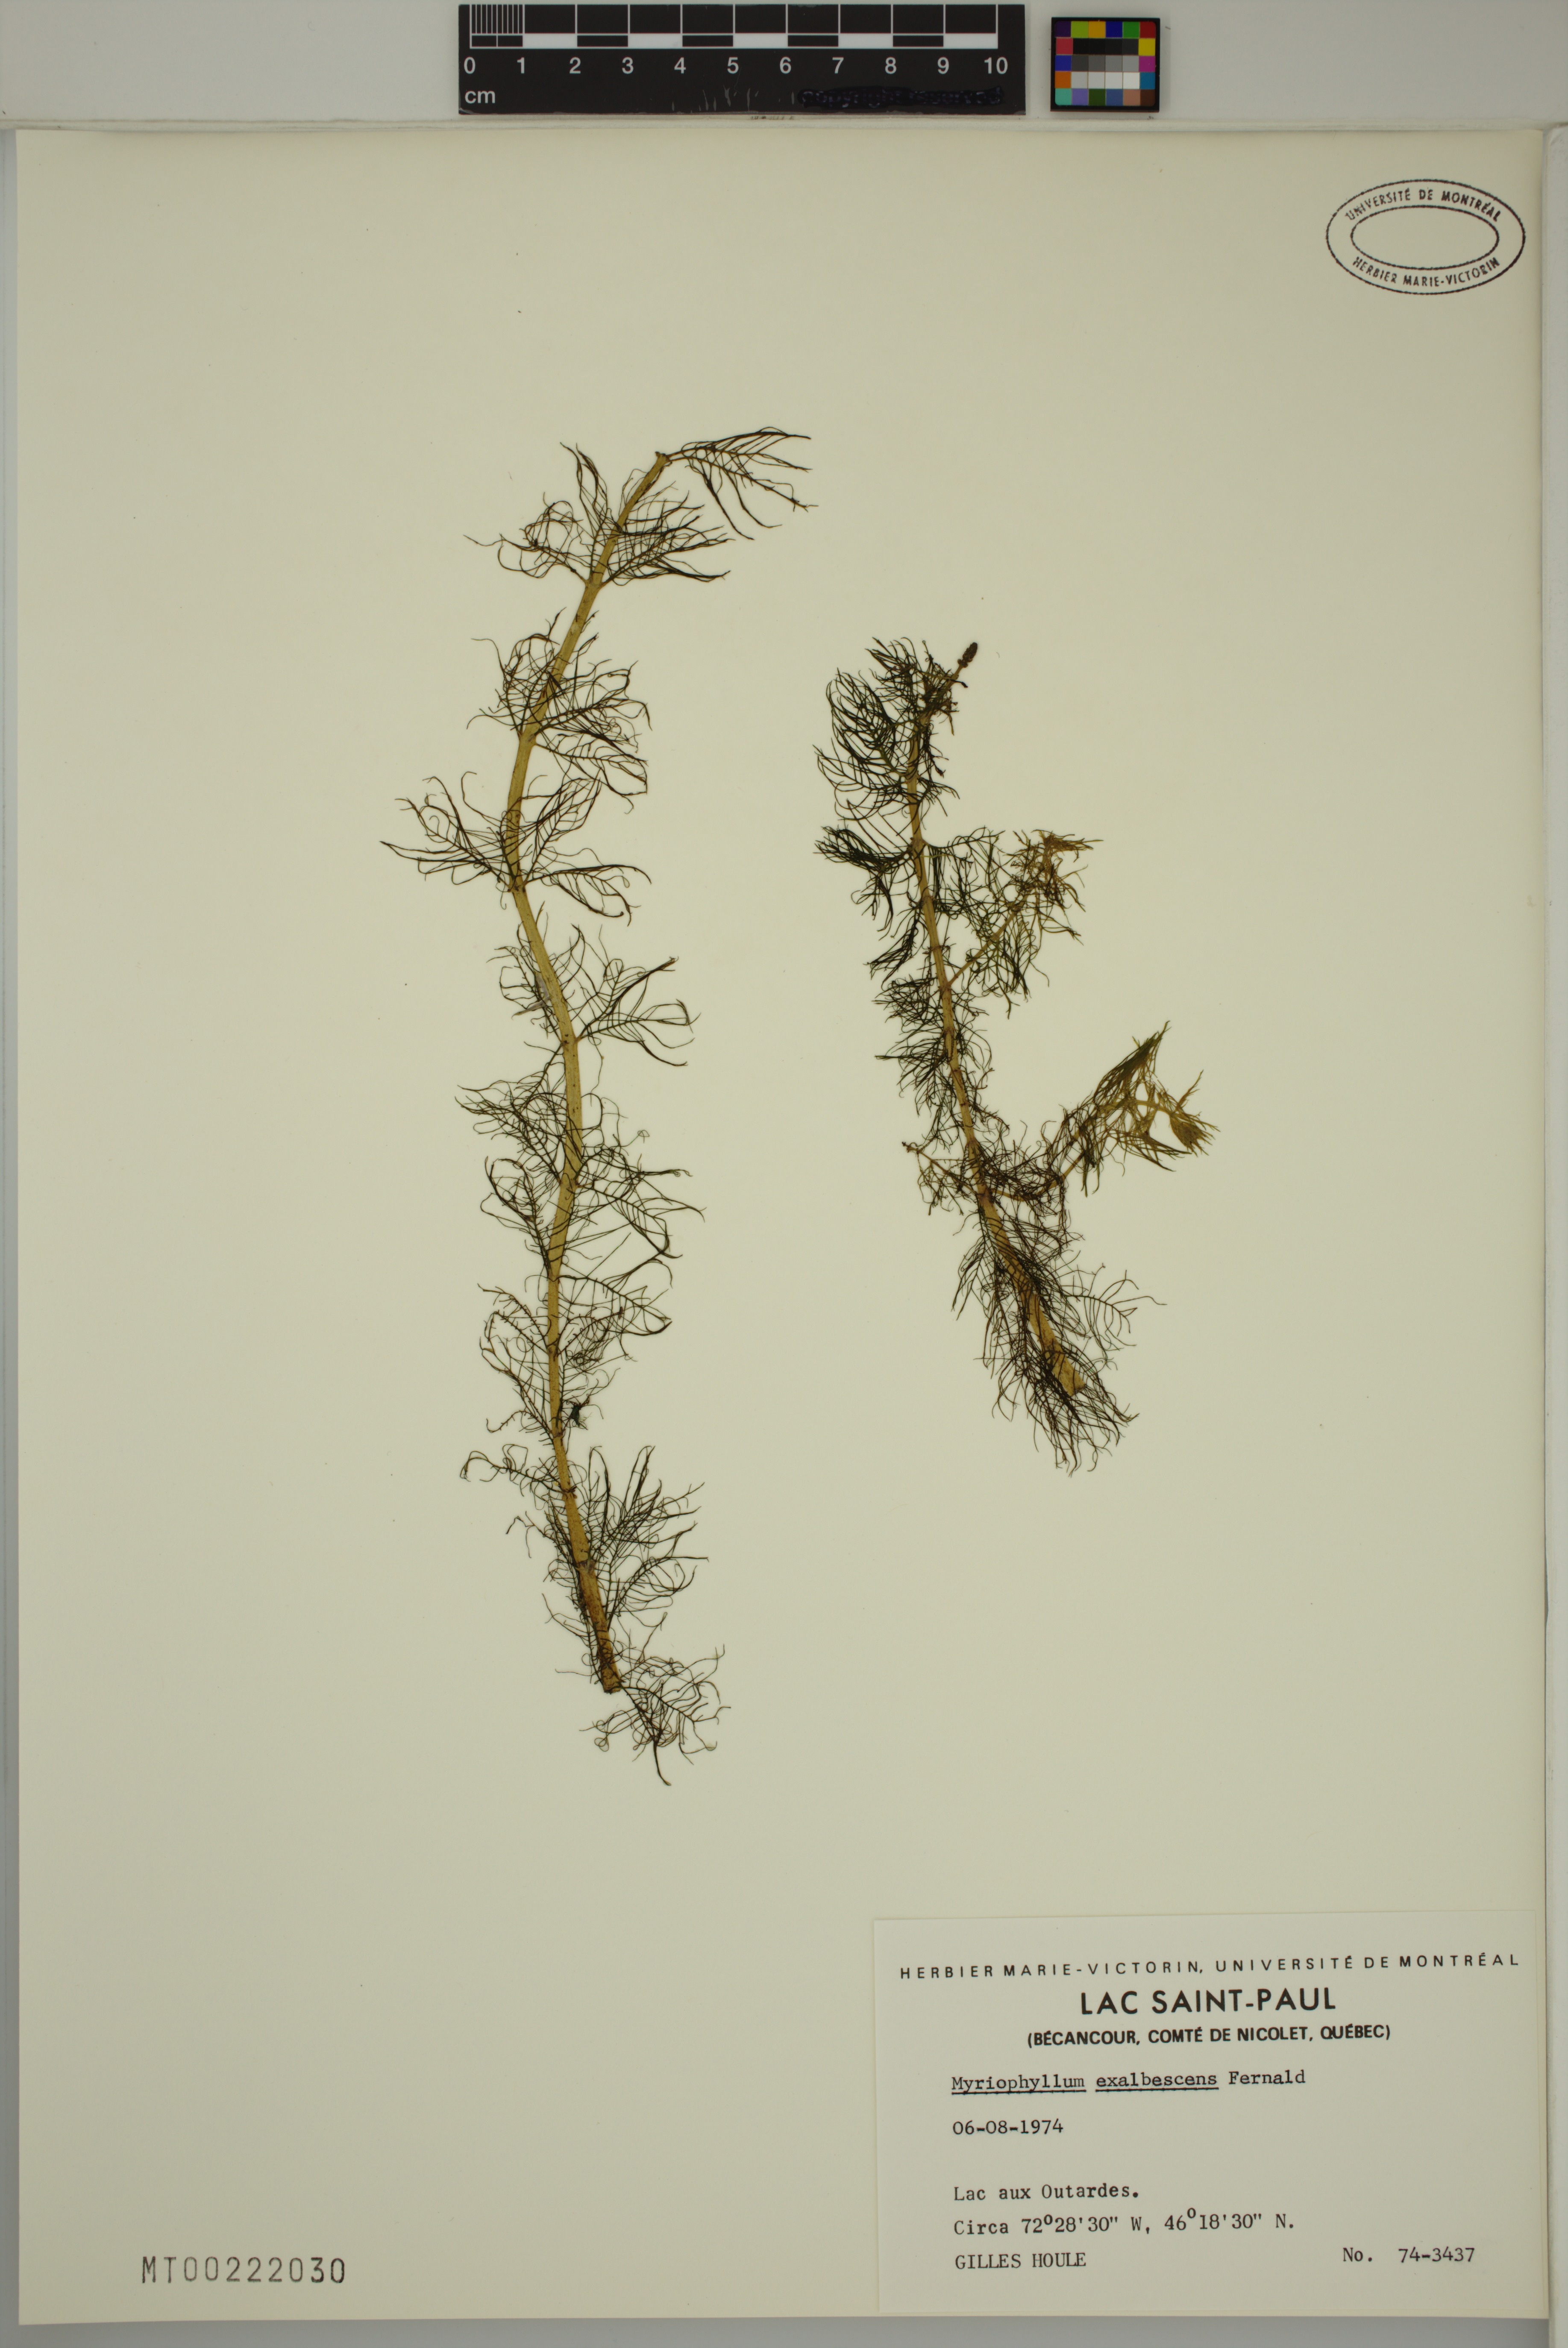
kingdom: Plantae
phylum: Tracheophyta
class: Magnoliopsida
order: Saxifragales
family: Haloragaceae
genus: Myriophyllum
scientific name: Myriophyllum sibiricum
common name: Siberian water-milfoil
